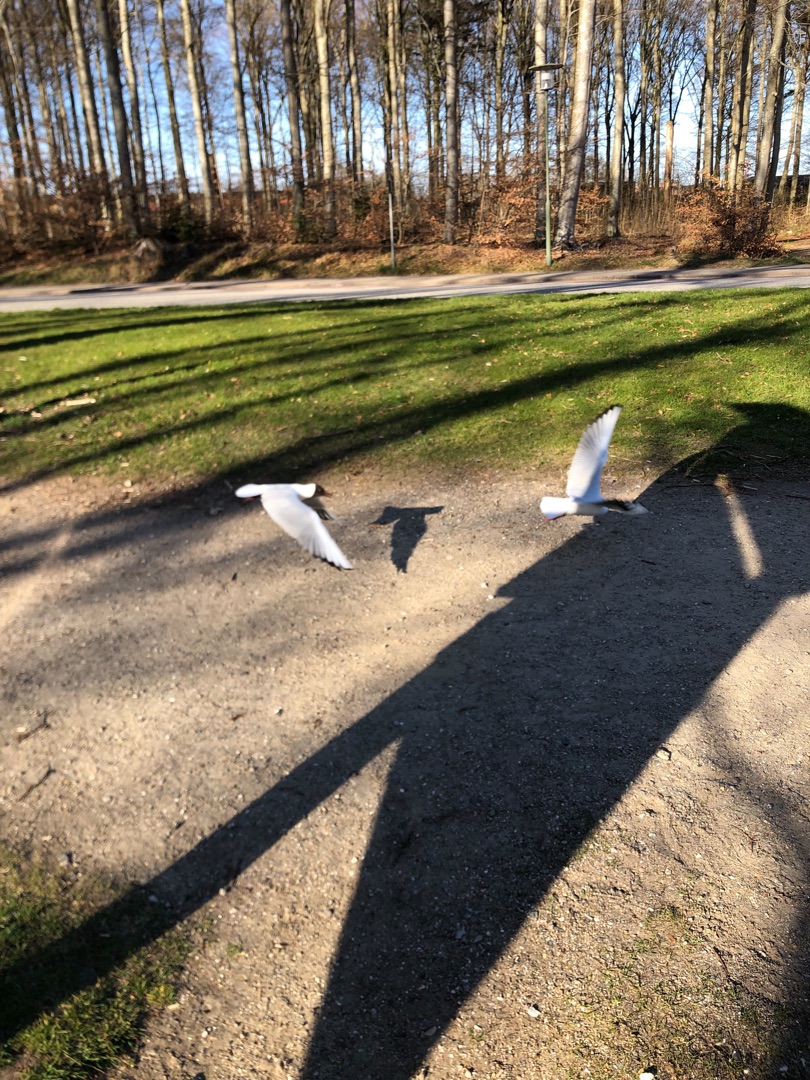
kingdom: Animalia
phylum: Chordata
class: Aves
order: Charadriiformes
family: Laridae
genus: Chroicocephalus
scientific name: Chroicocephalus ridibundus
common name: Hættemåge
